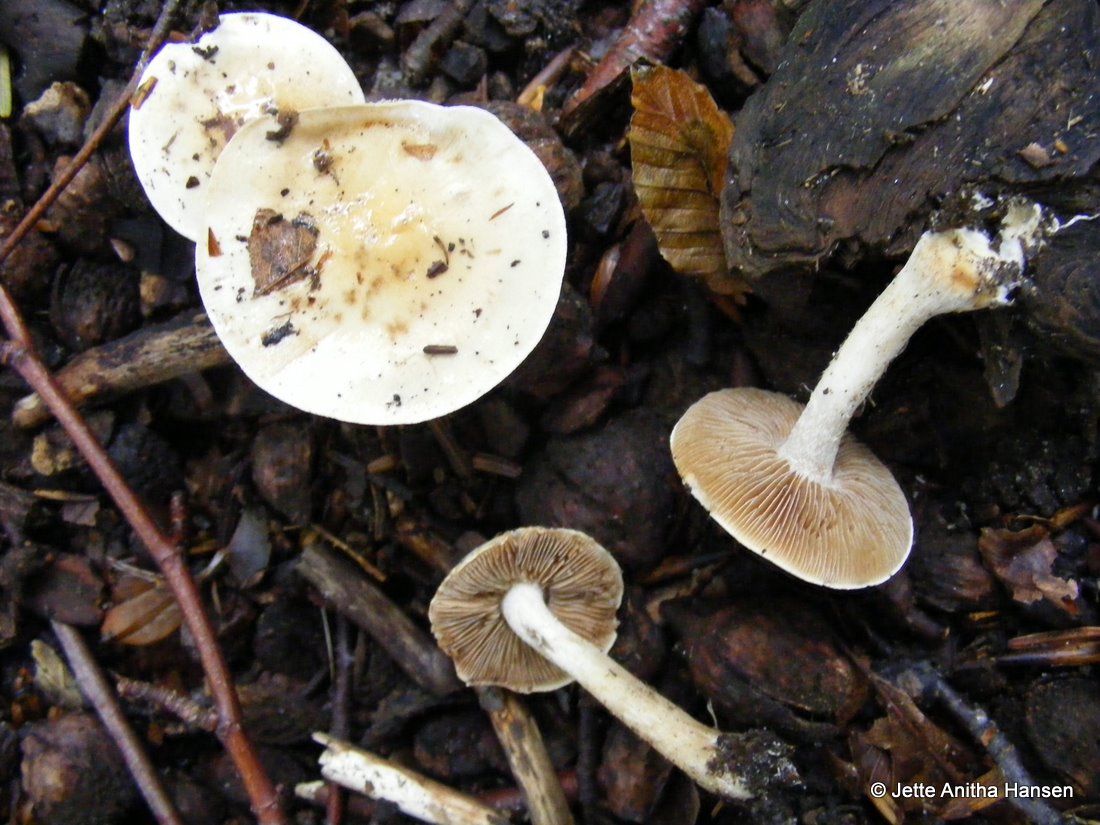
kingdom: Fungi
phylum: Basidiomycota
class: Agaricomycetes
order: Agaricales
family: Hymenogastraceae
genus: Hebeloma
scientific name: Hebeloma
